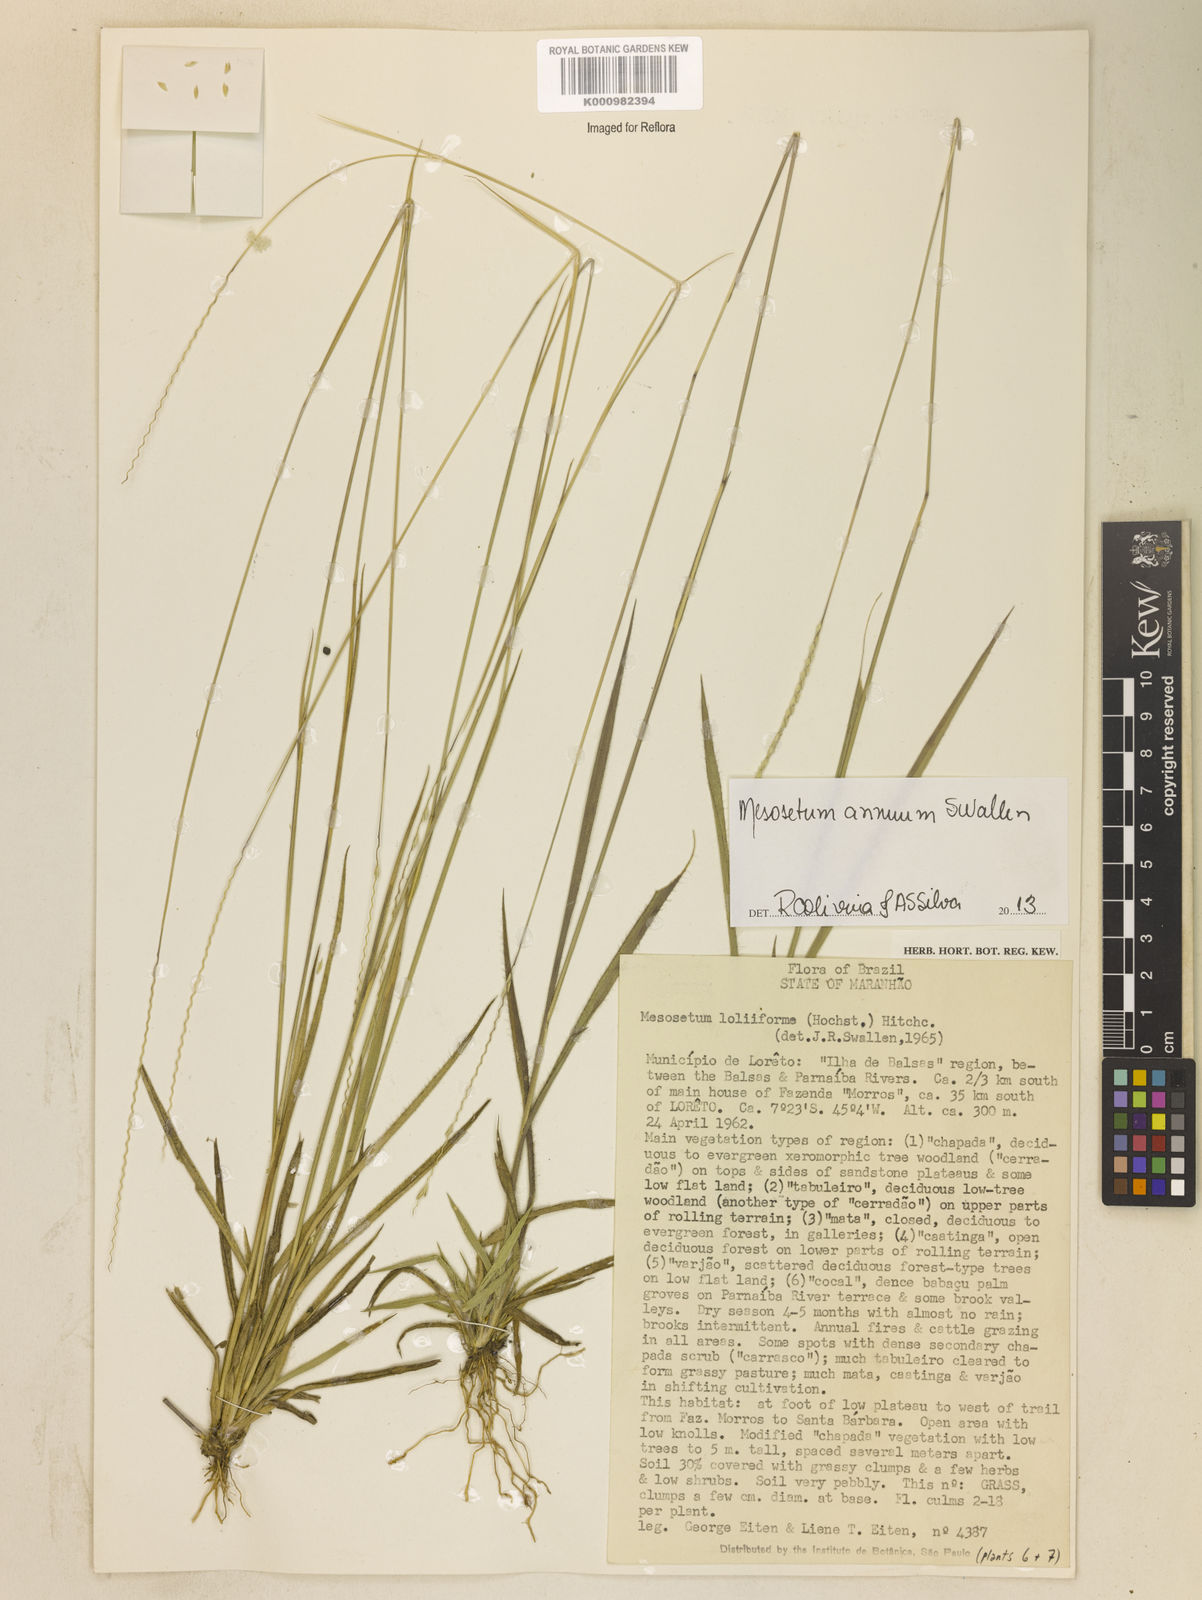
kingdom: Plantae
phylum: Tracheophyta
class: Liliopsida
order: Poales
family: Poaceae
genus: Mesosetum
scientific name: Mesosetum annuum
